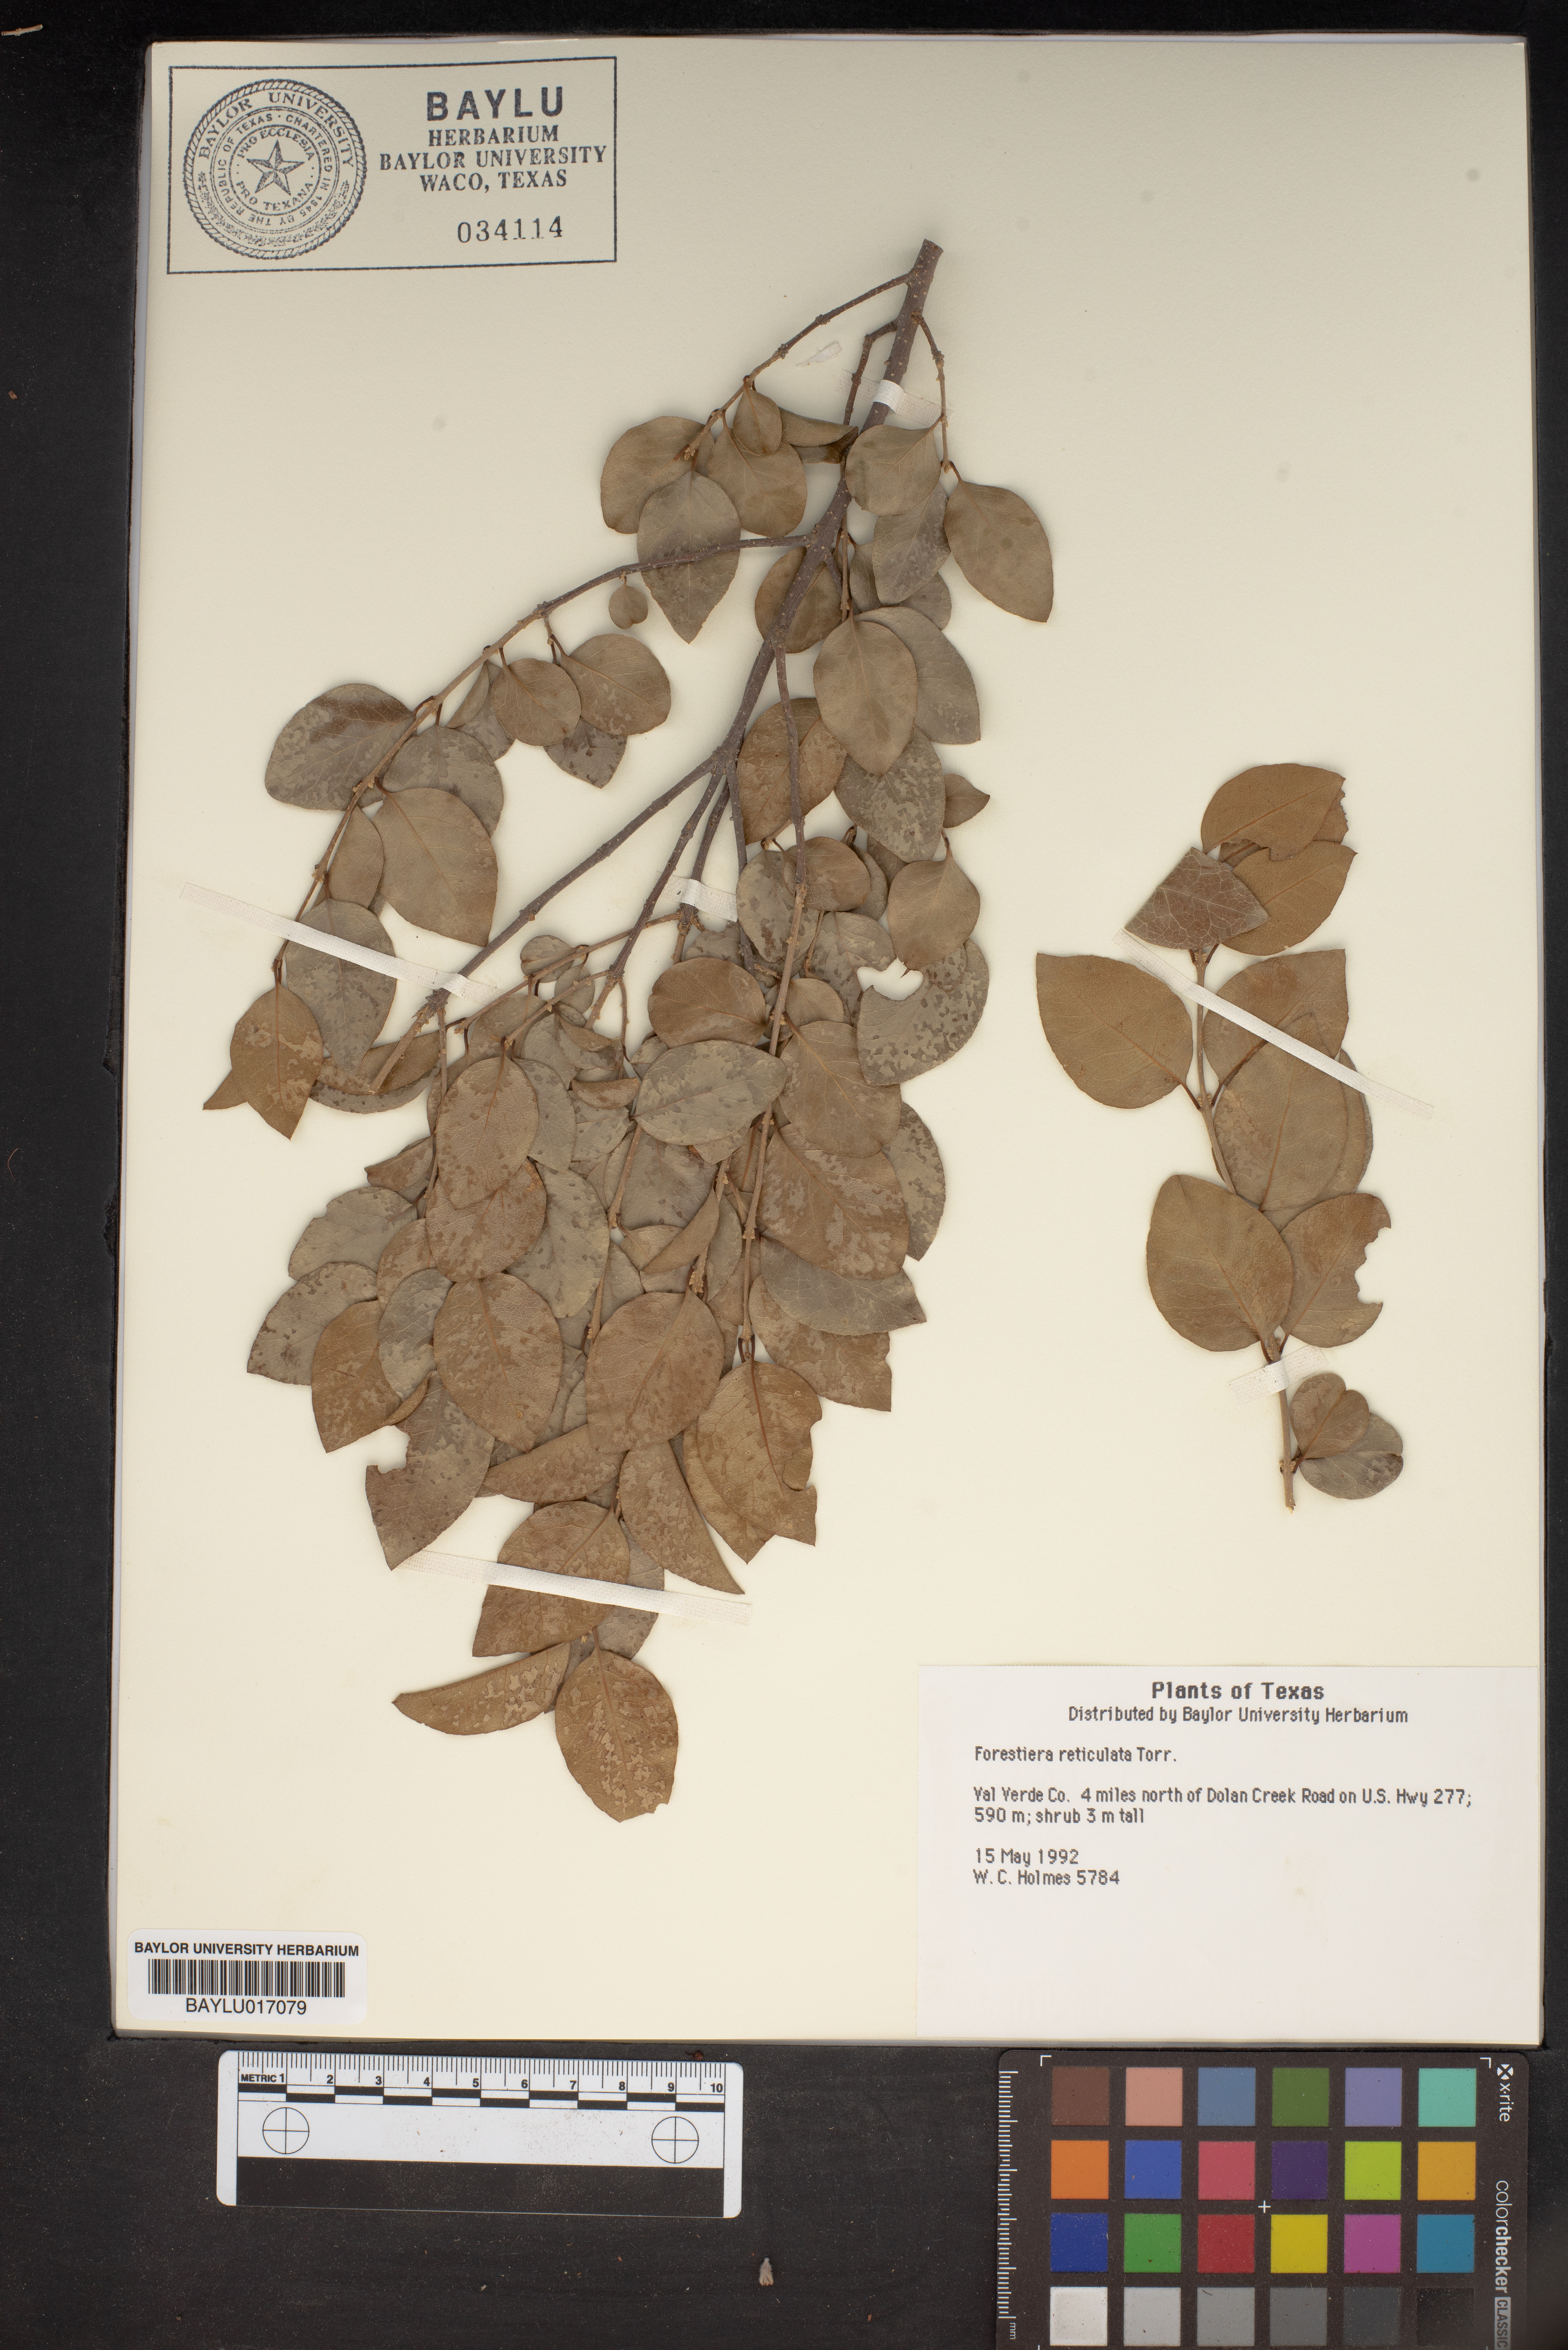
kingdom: Plantae
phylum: Tracheophyta
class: Magnoliopsida
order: Lamiales
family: Oleaceae
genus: Forestiera
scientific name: Forestiera reticulata
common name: Netleaf swamp-privet
